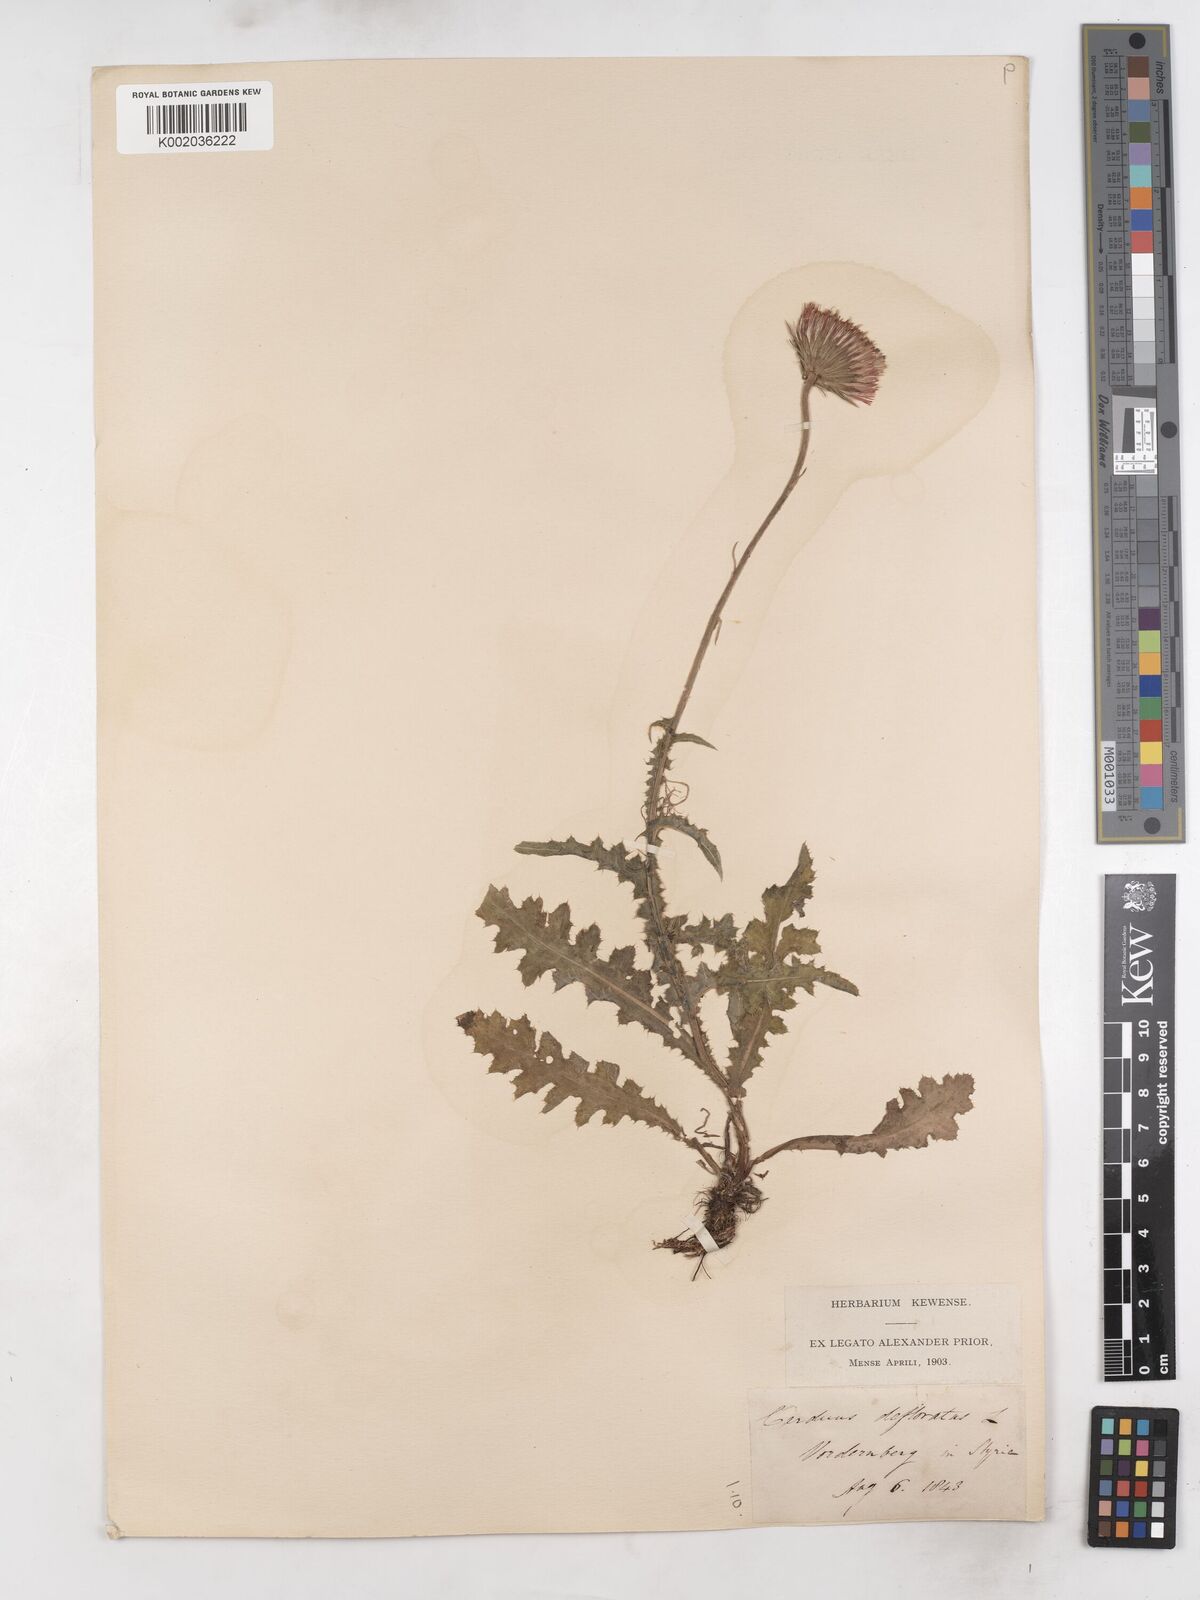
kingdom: Plantae
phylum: Tracheophyta
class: Magnoliopsida
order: Asterales
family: Asteraceae
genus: Carduus
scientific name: Carduus defloratus
